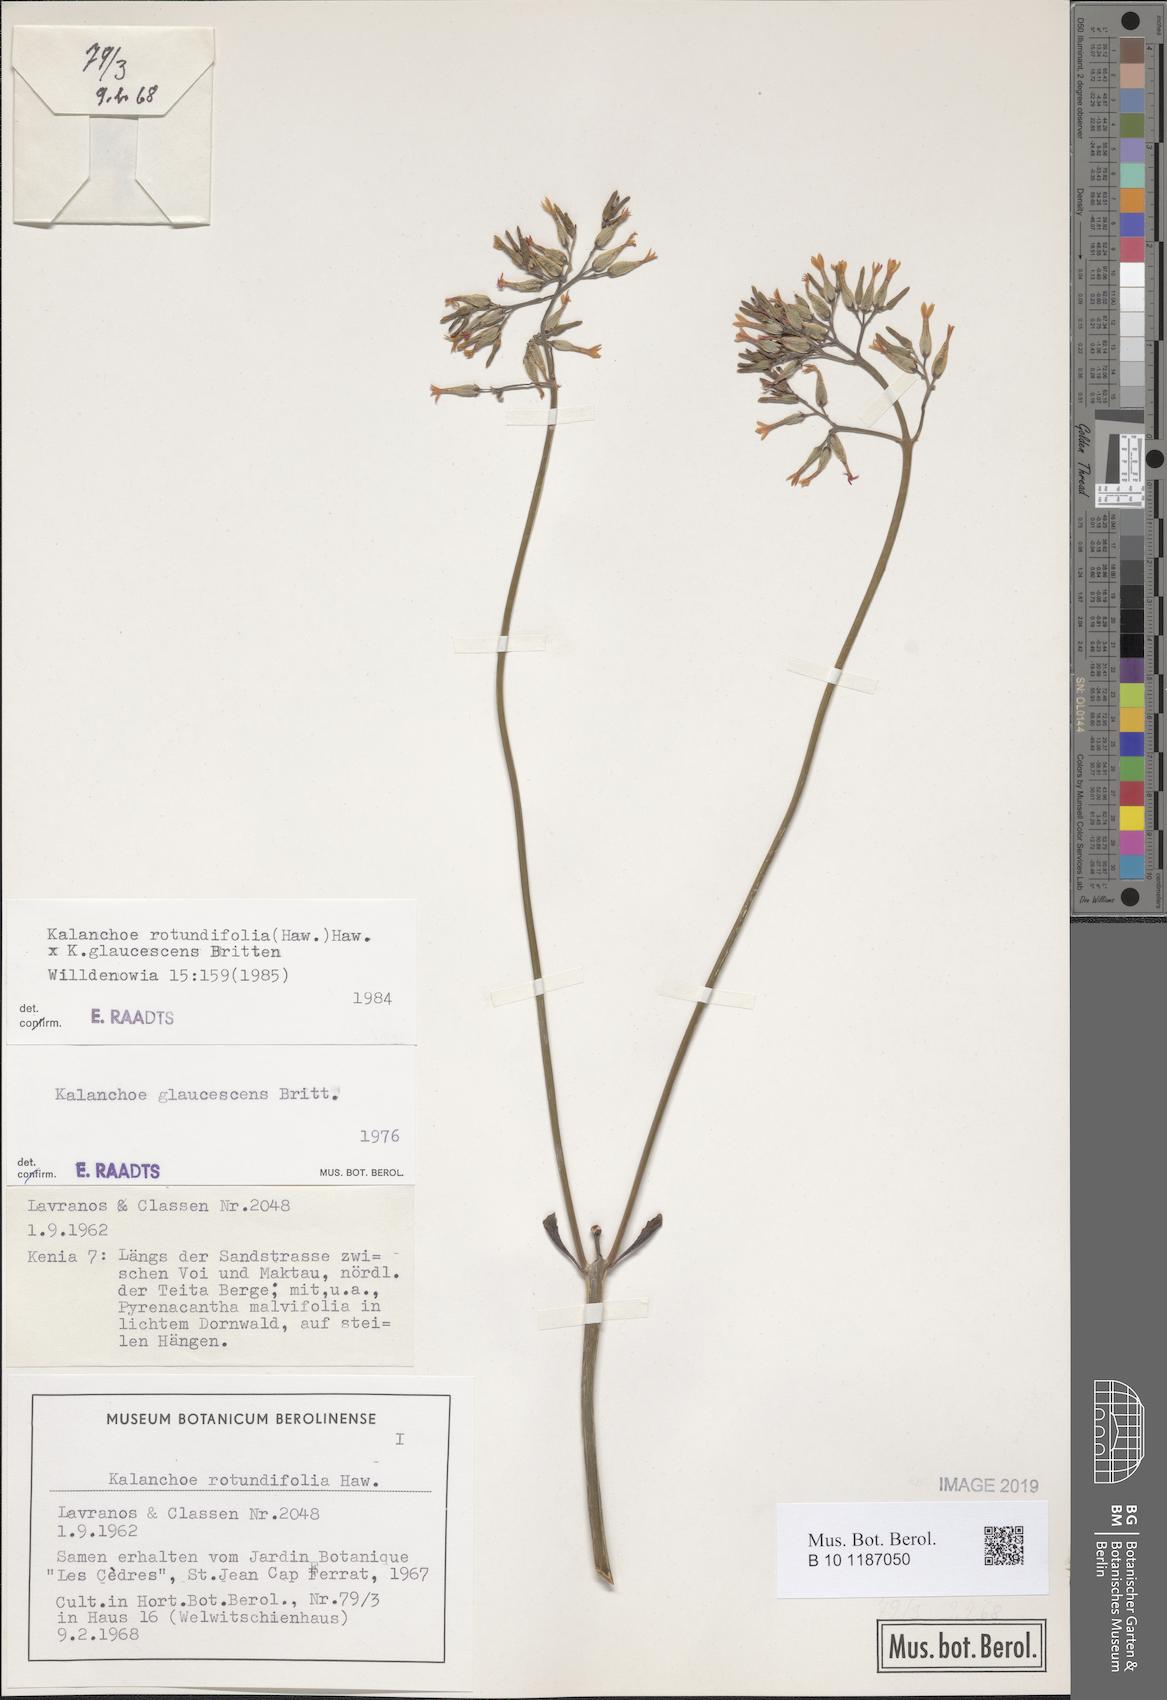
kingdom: Plantae
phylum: Tracheophyta
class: Magnoliopsida
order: Saxifragales
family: Crassulaceae
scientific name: Crassulaceae
